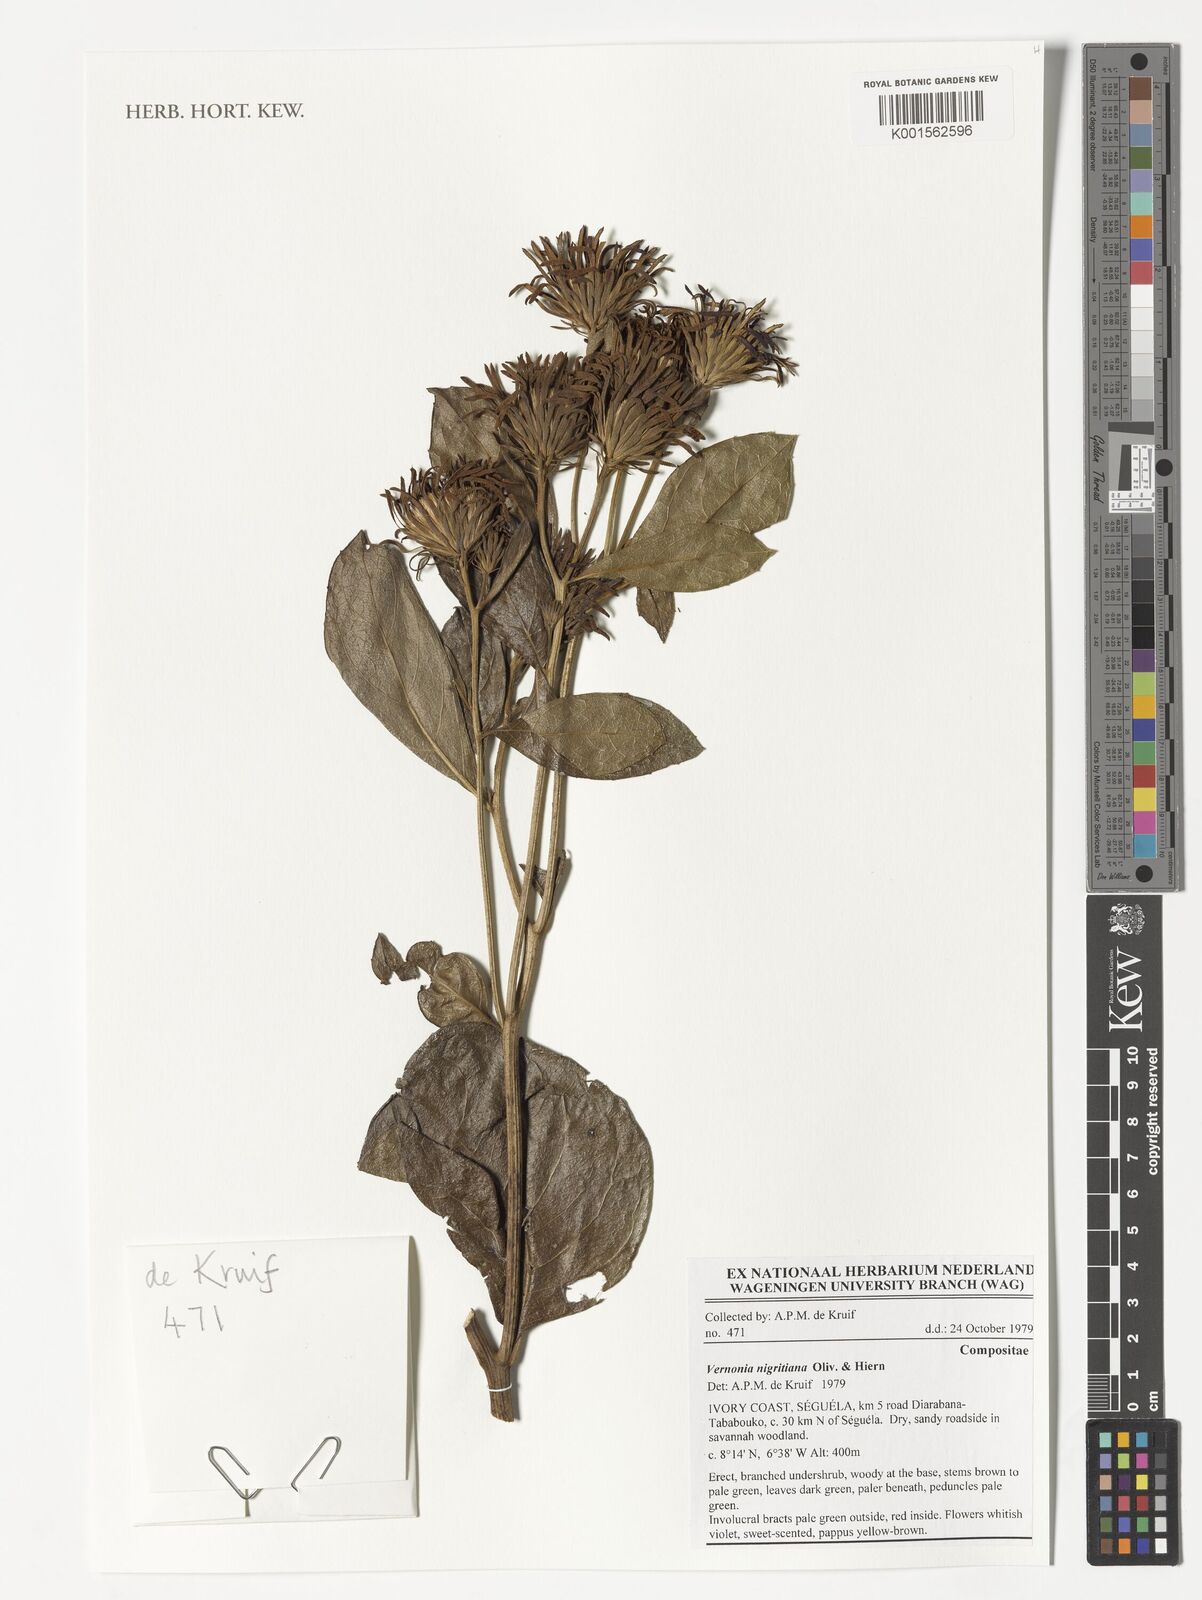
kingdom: Plantae
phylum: Tracheophyta
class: Magnoliopsida
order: Asterales
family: Asteraceae
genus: Linzia
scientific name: Linzia nigritiana
